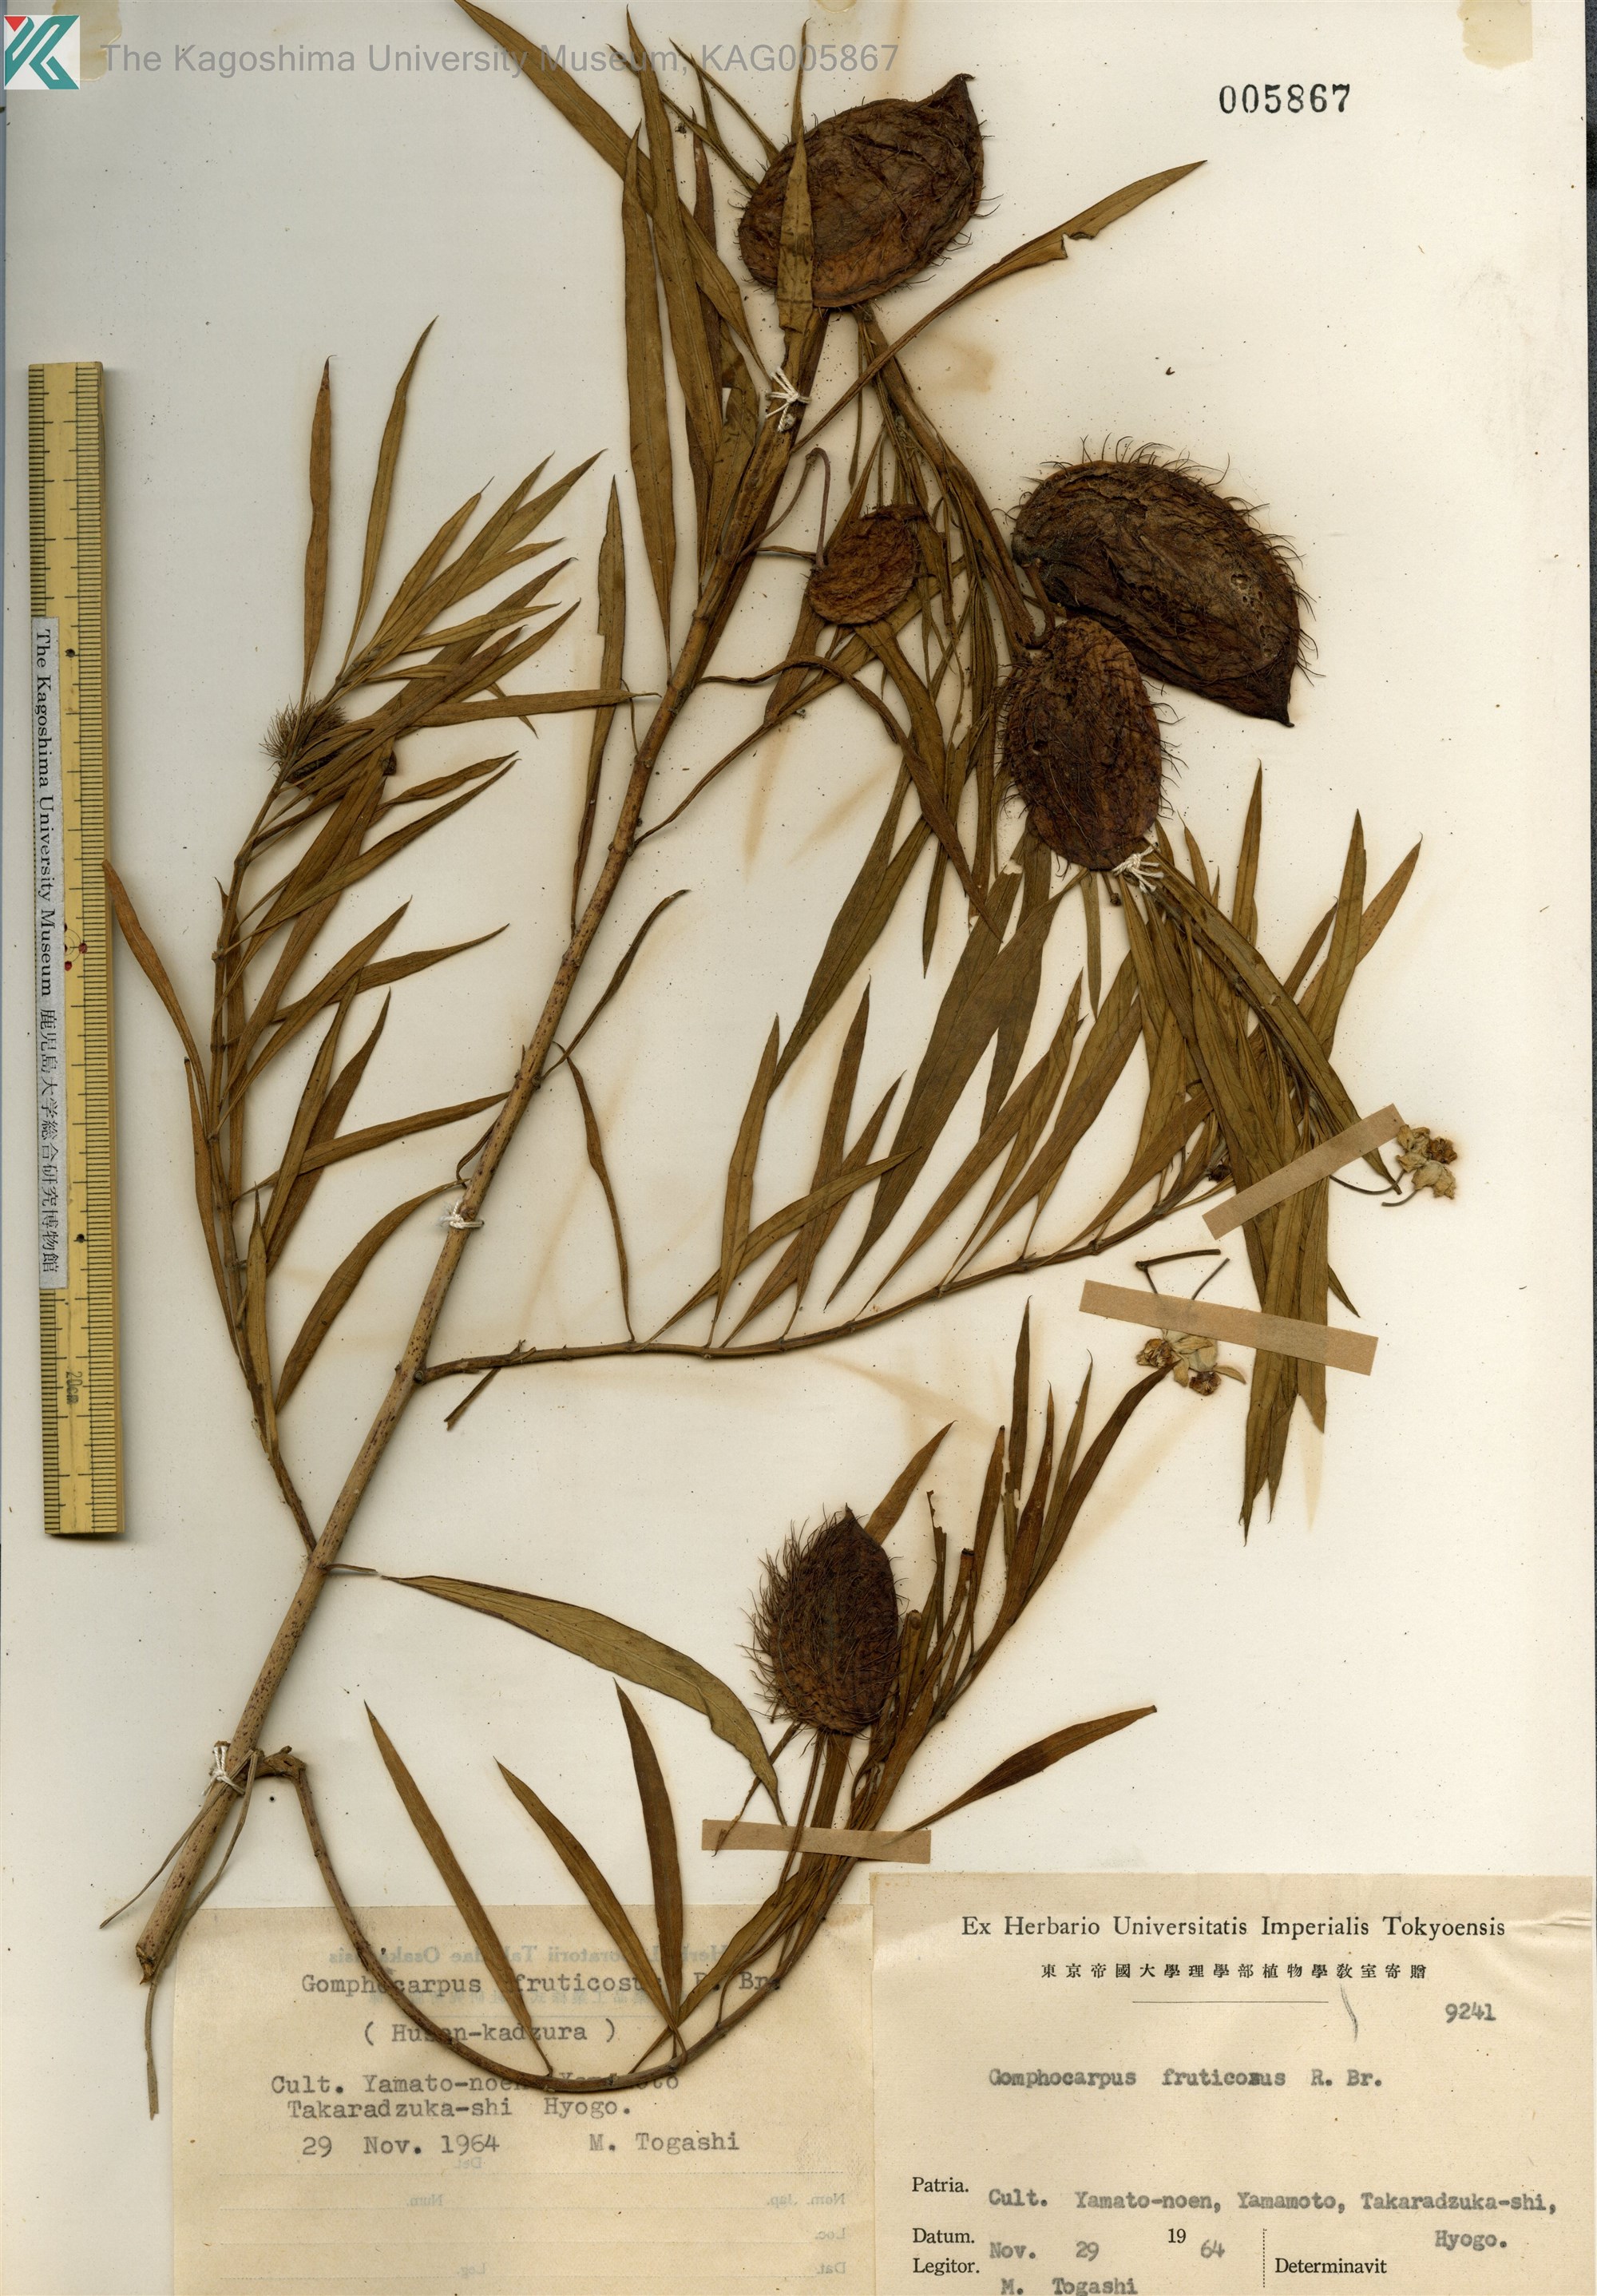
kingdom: Plantae
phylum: Tracheophyta
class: Magnoliopsida
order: Gentianales
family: Apocynaceae
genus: Gomphocarpus
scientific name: Gomphocarpus fruticosus
